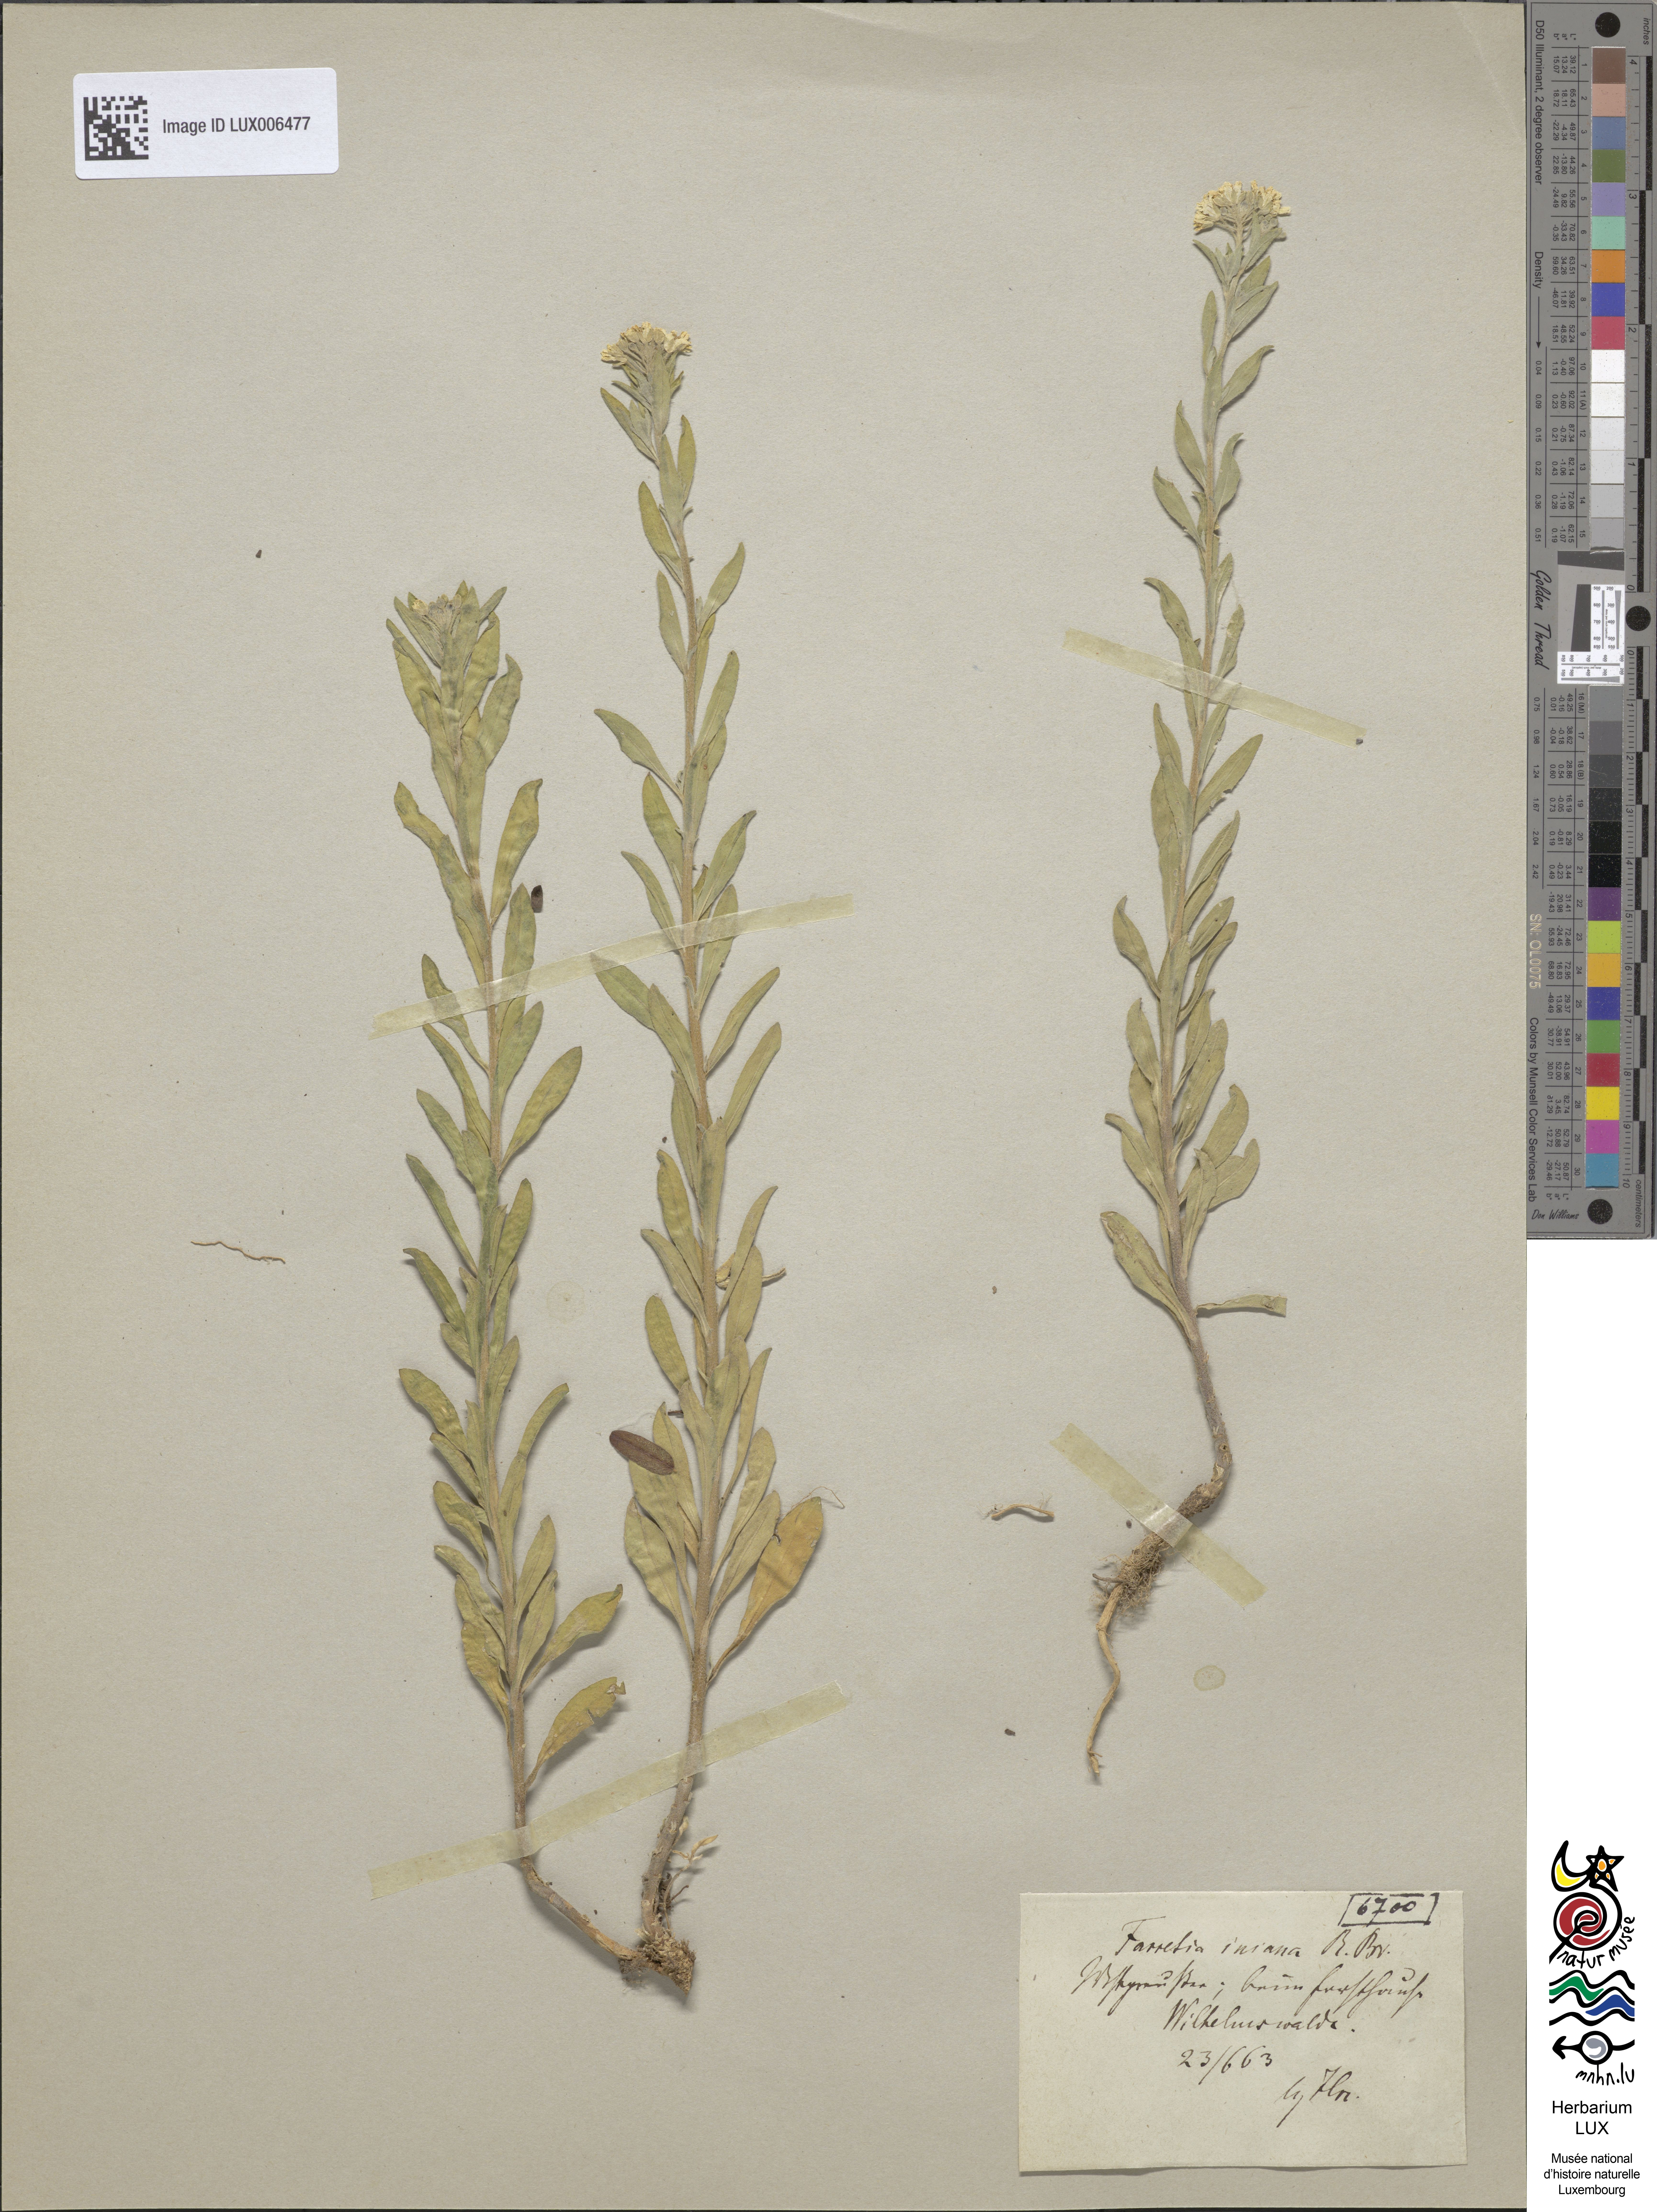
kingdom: Plantae
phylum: Tracheophyta
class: Magnoliopsida
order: Brassicales
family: Brassicaceae
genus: Berteroa
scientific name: Berteroa incana
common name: Hoary alison
